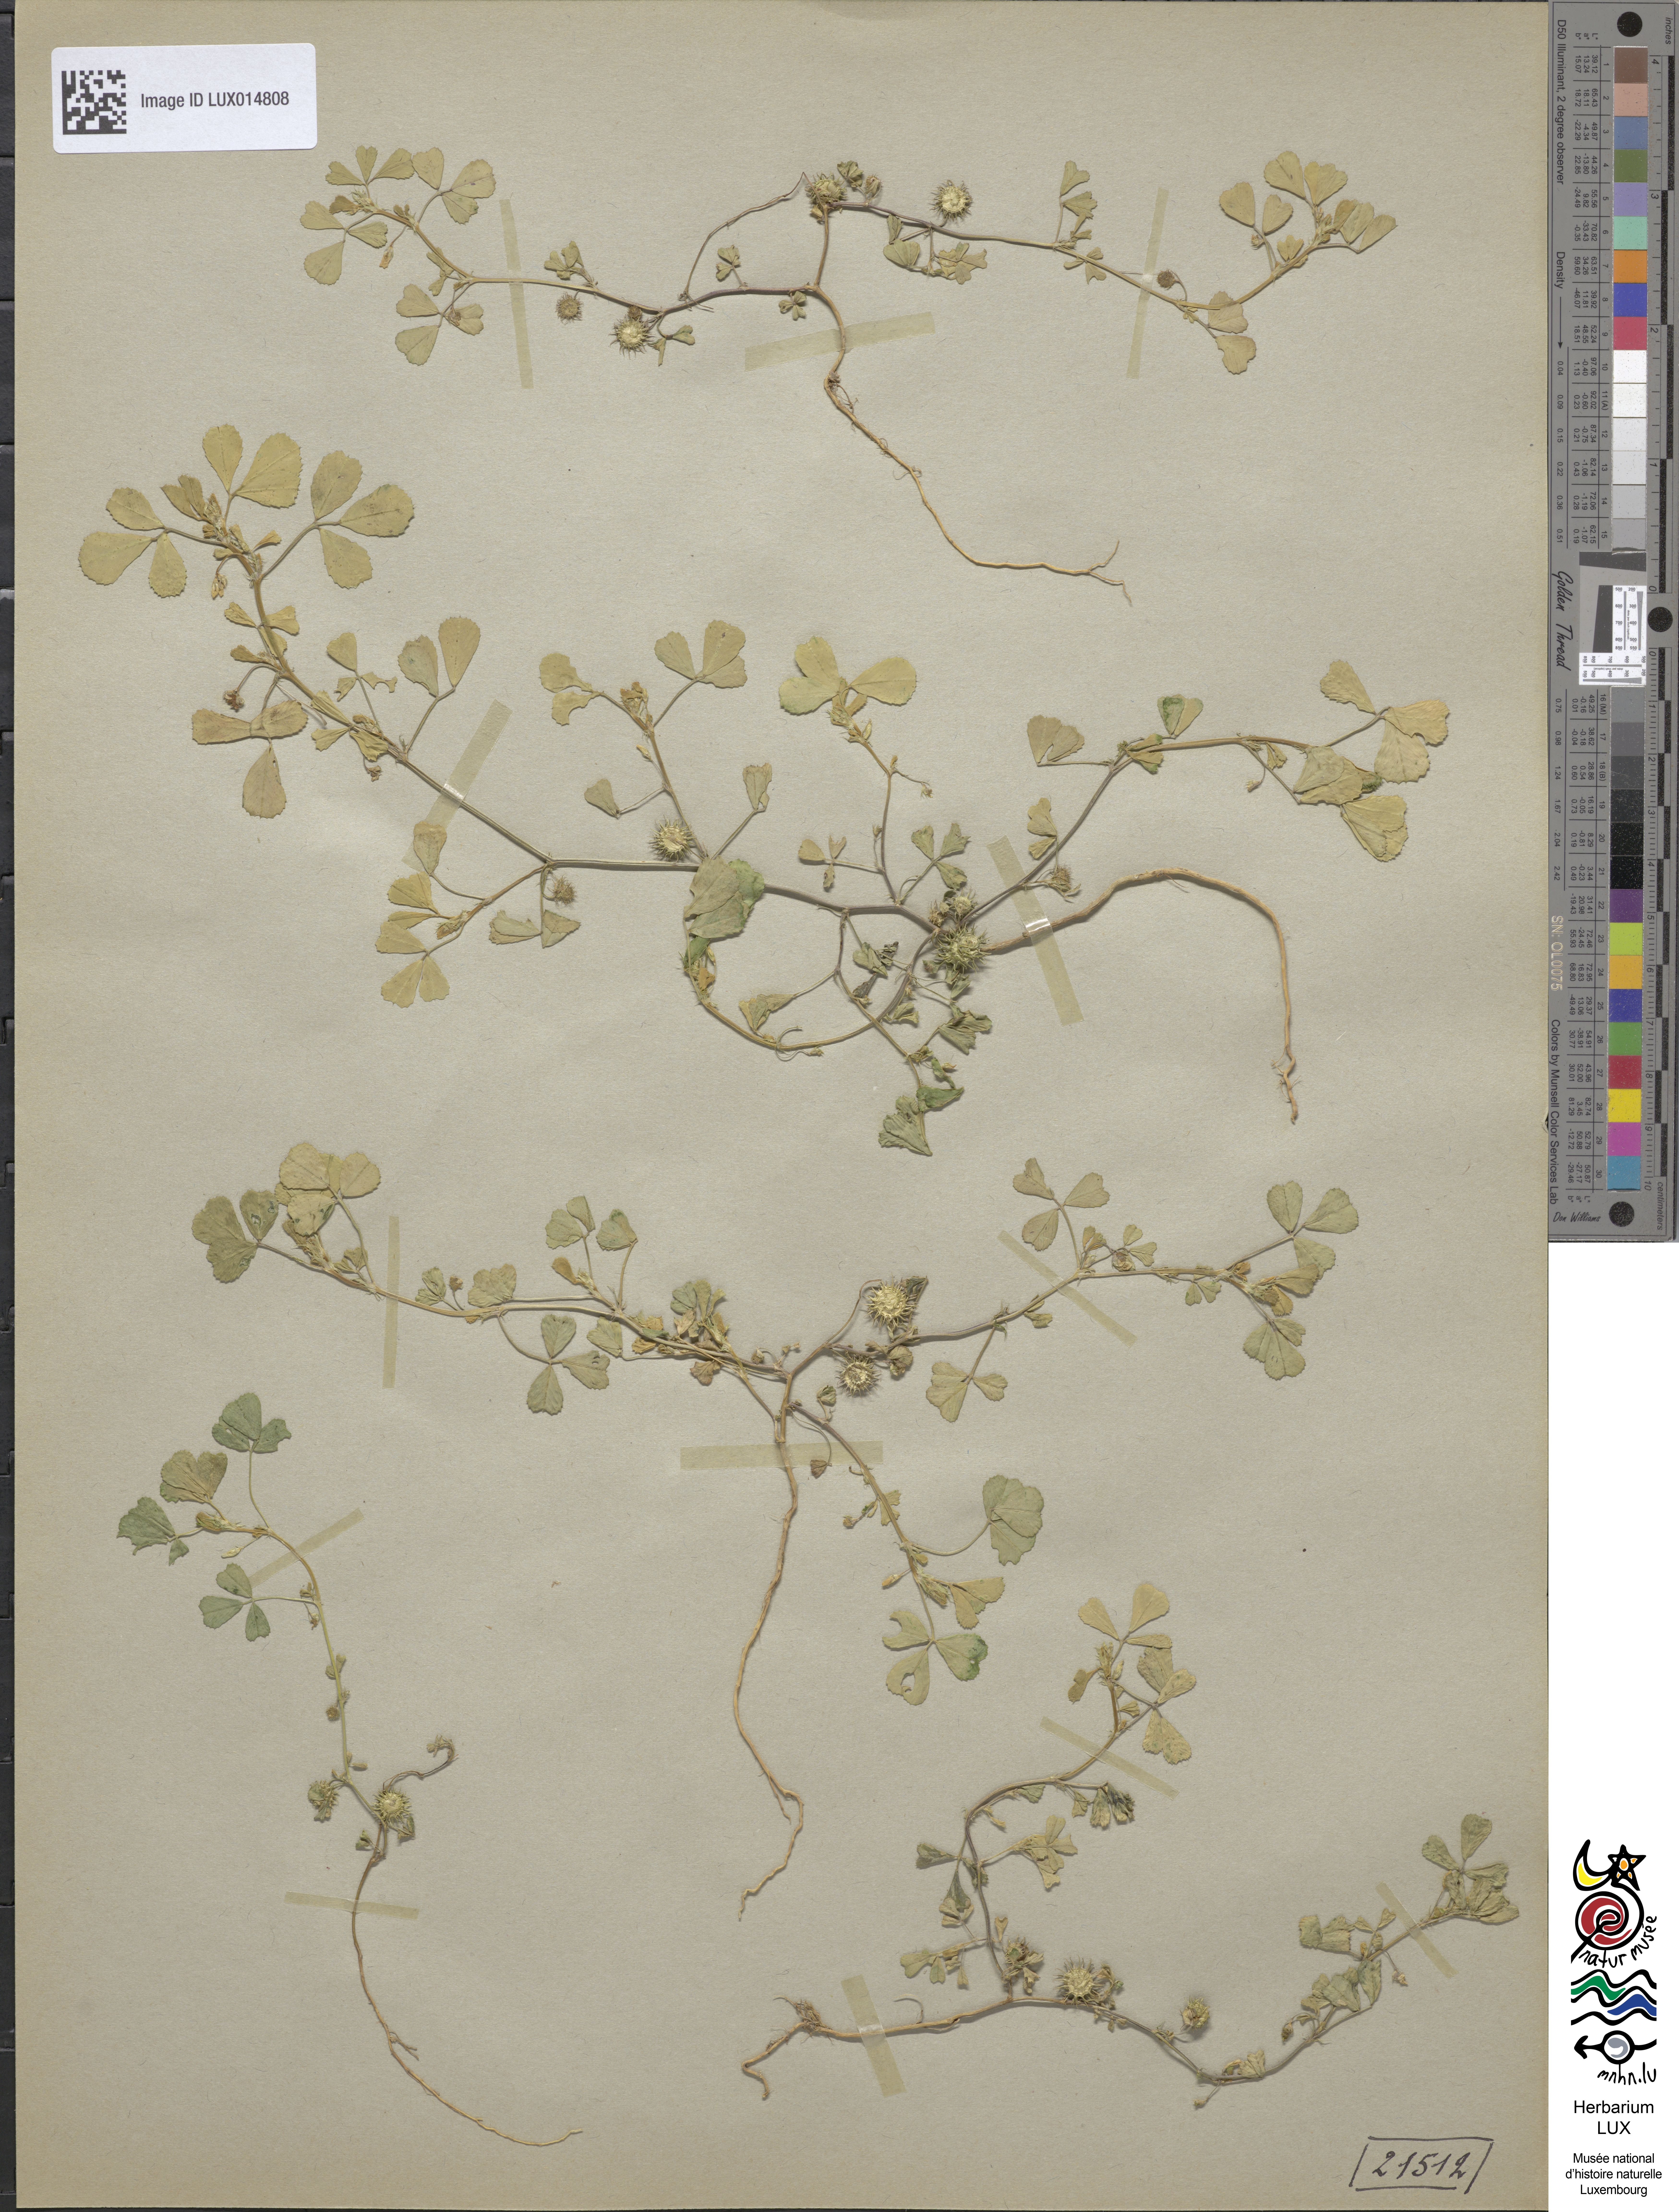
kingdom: Plantae
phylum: Tracheophyta
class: Magnoliopsida
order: Fabales
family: Fabaceae
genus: Medicago
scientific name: Medicago polymorpha
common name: Burclover
